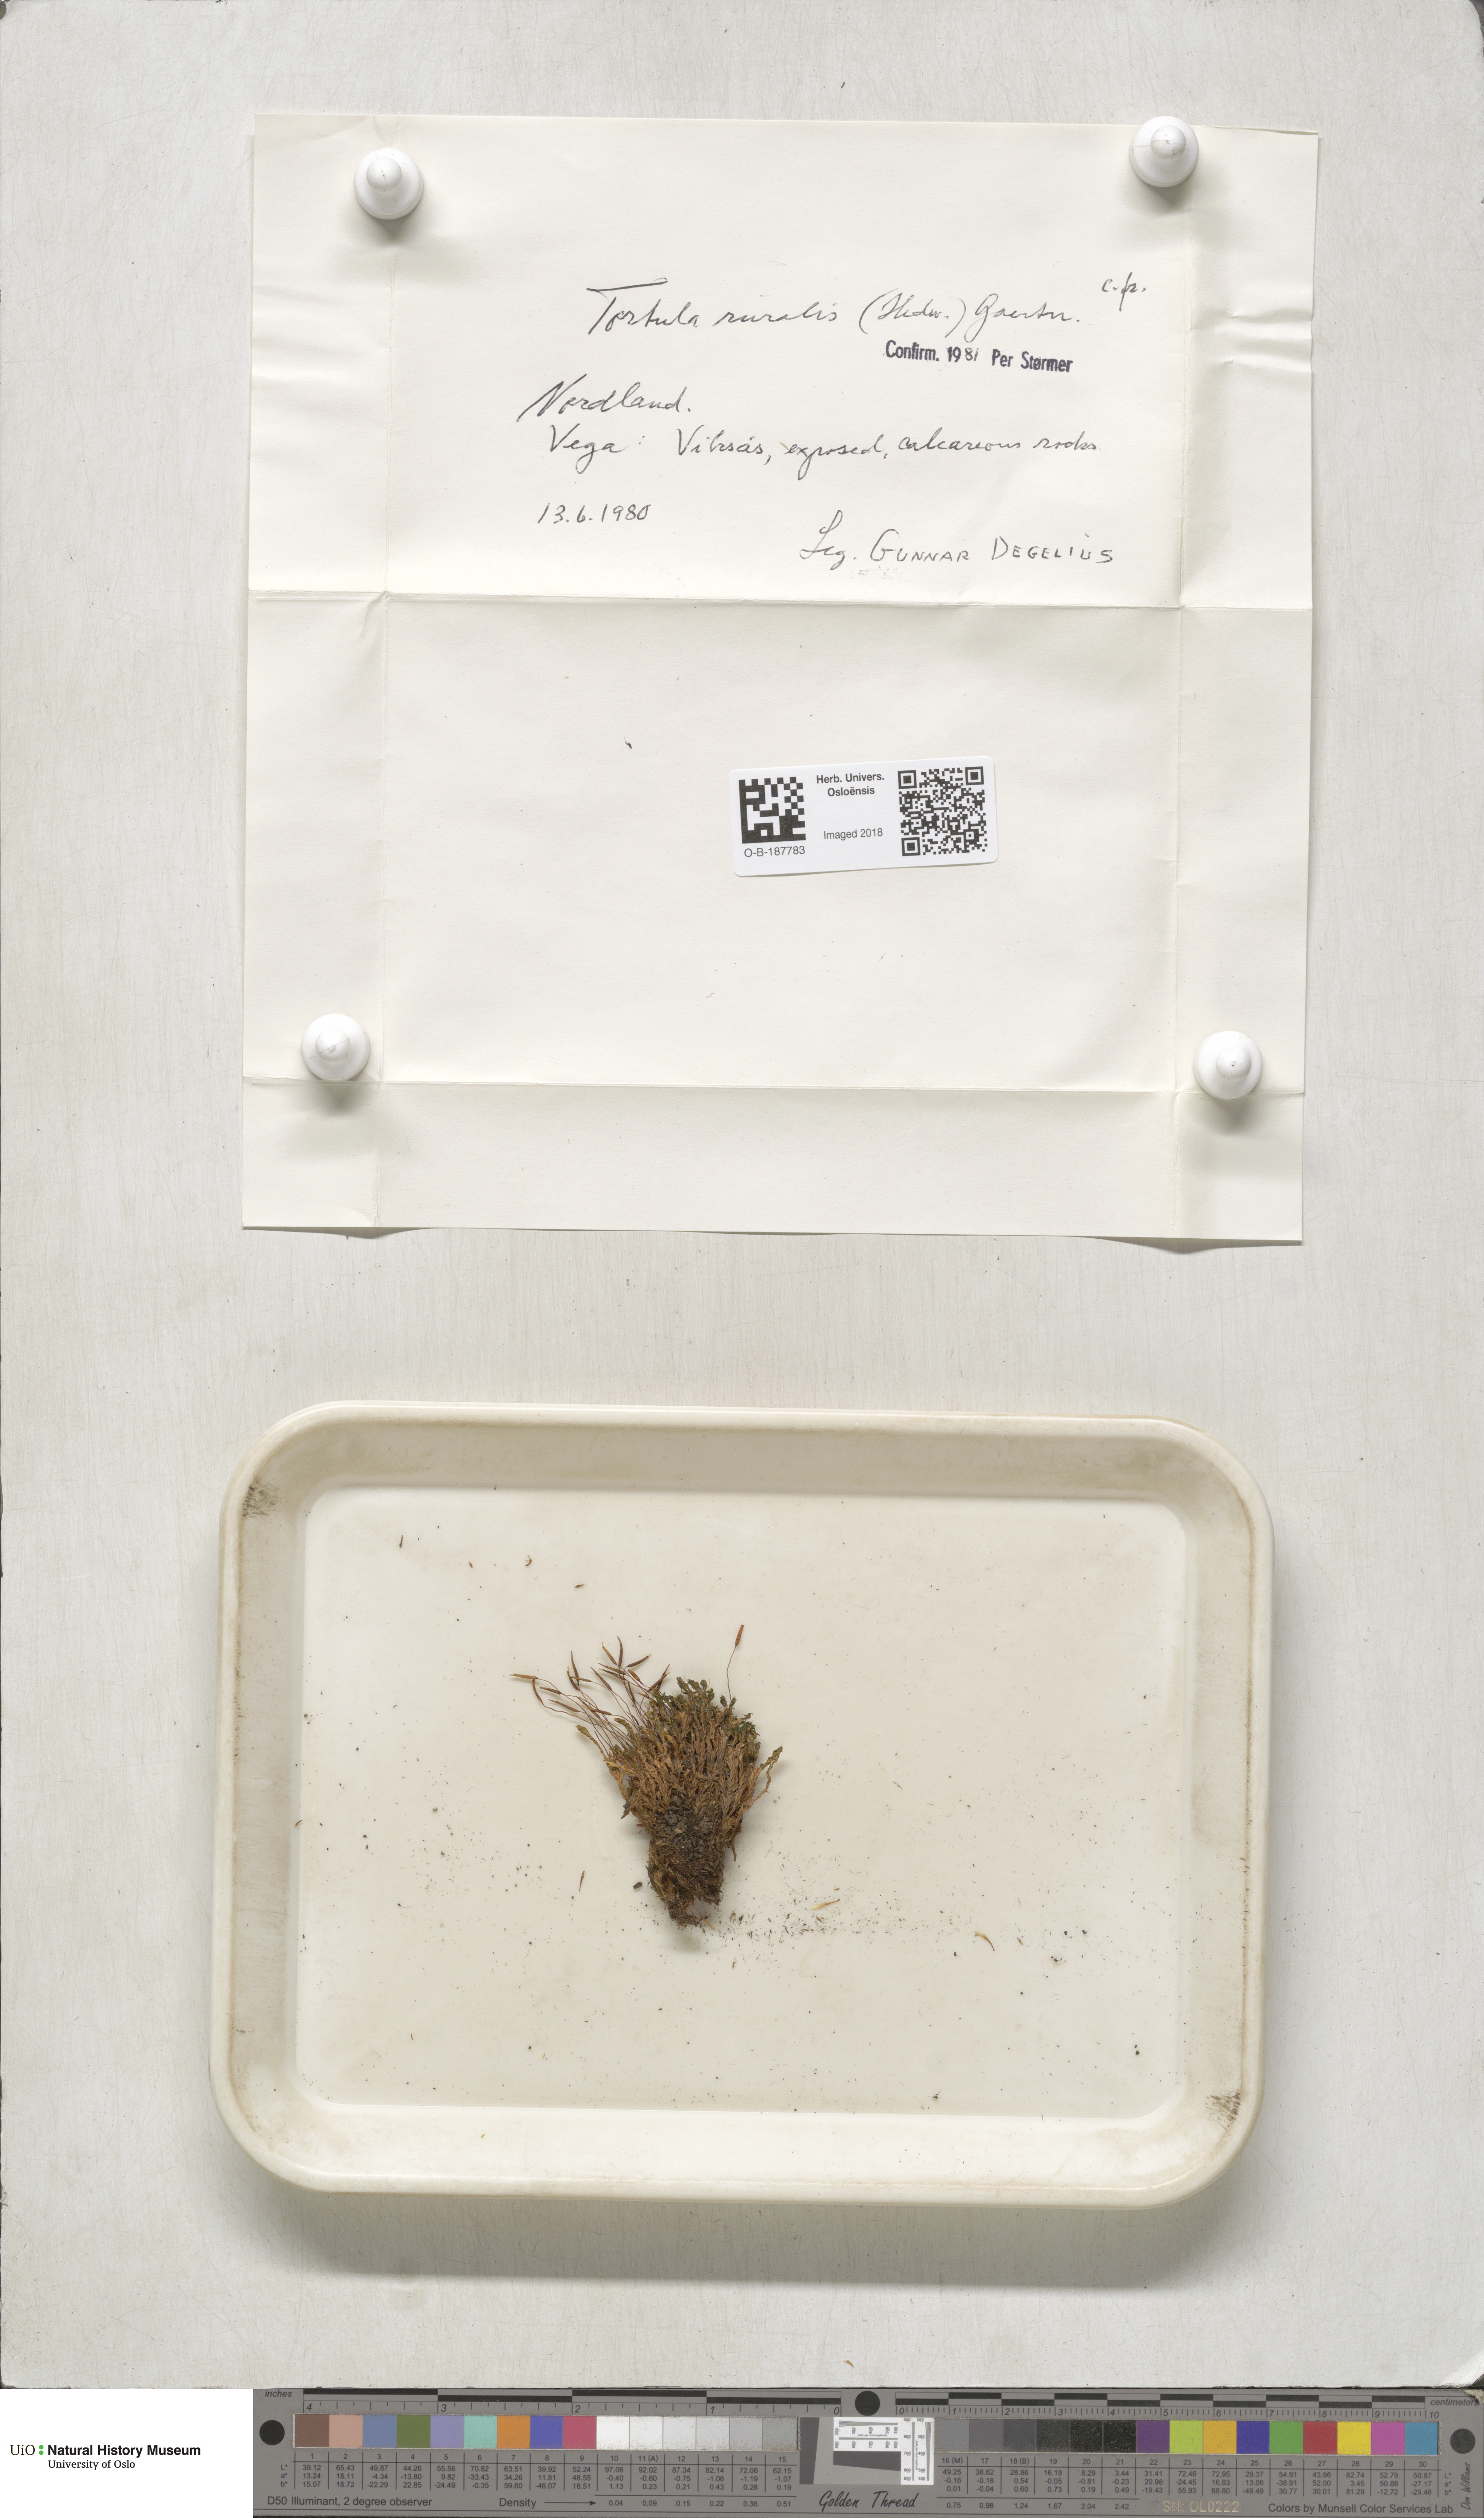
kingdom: Plantae
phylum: Bryophyta
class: Bryopsida
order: Pottiales
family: Pottiaceae
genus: Syntrichia
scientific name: Syntrichia ruralis
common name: Sidewalk screw moss
